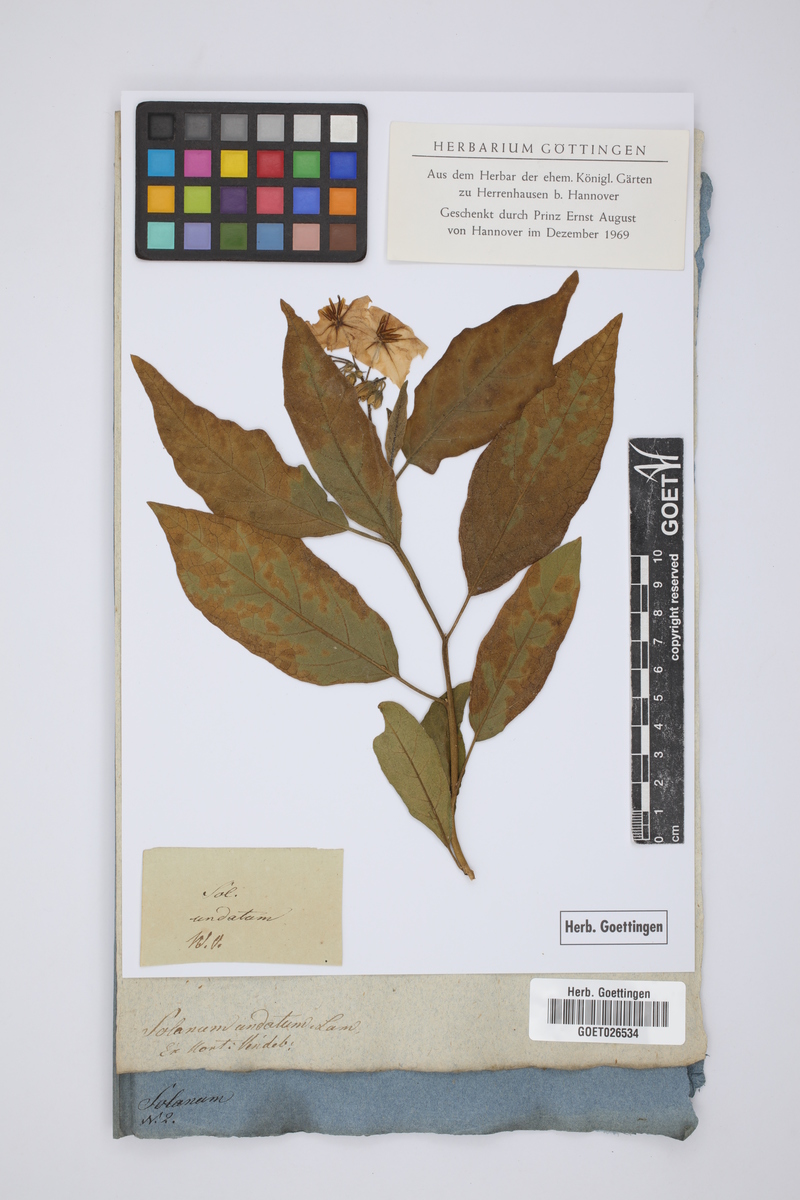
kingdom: Plantae
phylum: Tracheophyta
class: Magnoliopsida
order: Solanales
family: Solanaceae
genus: Solanum
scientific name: Solanum insanum
